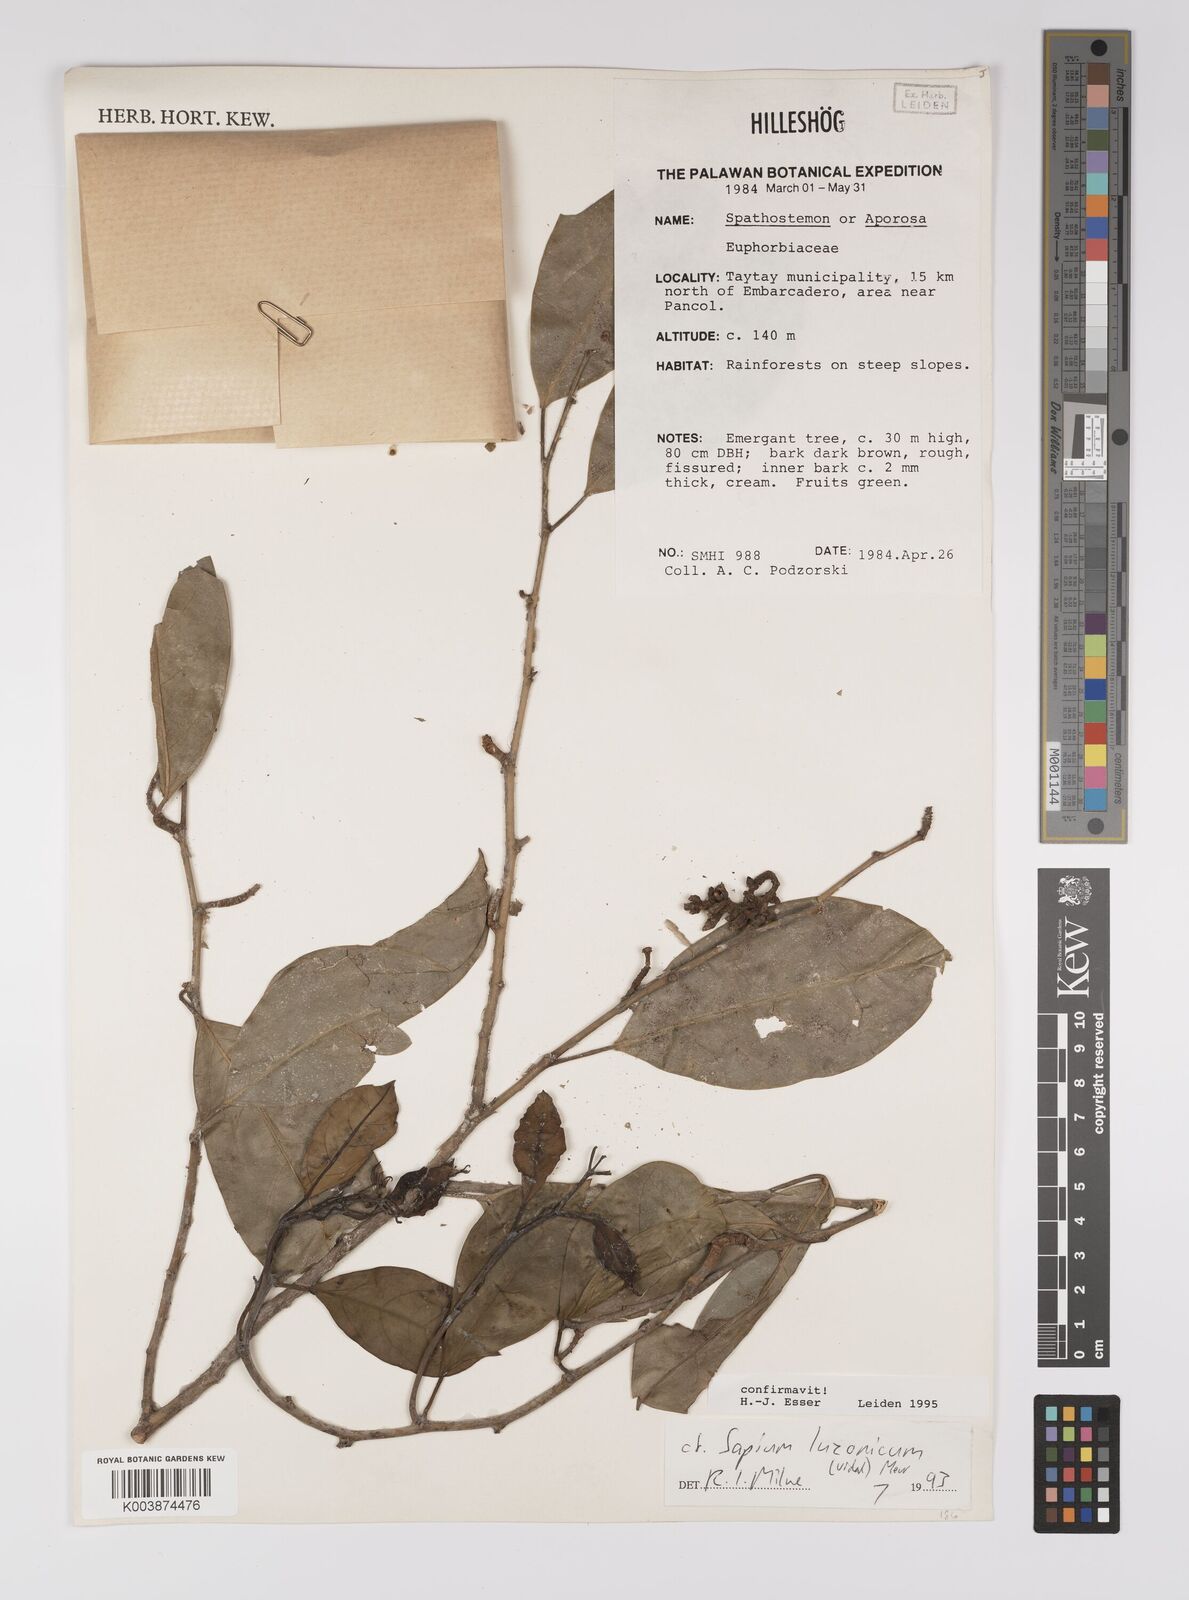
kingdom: Plantae
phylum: Tracheophyta
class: Magnoliopsida
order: Malpighiales
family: Euphorbiaceae
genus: Balakata
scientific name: Balakata luzonica
